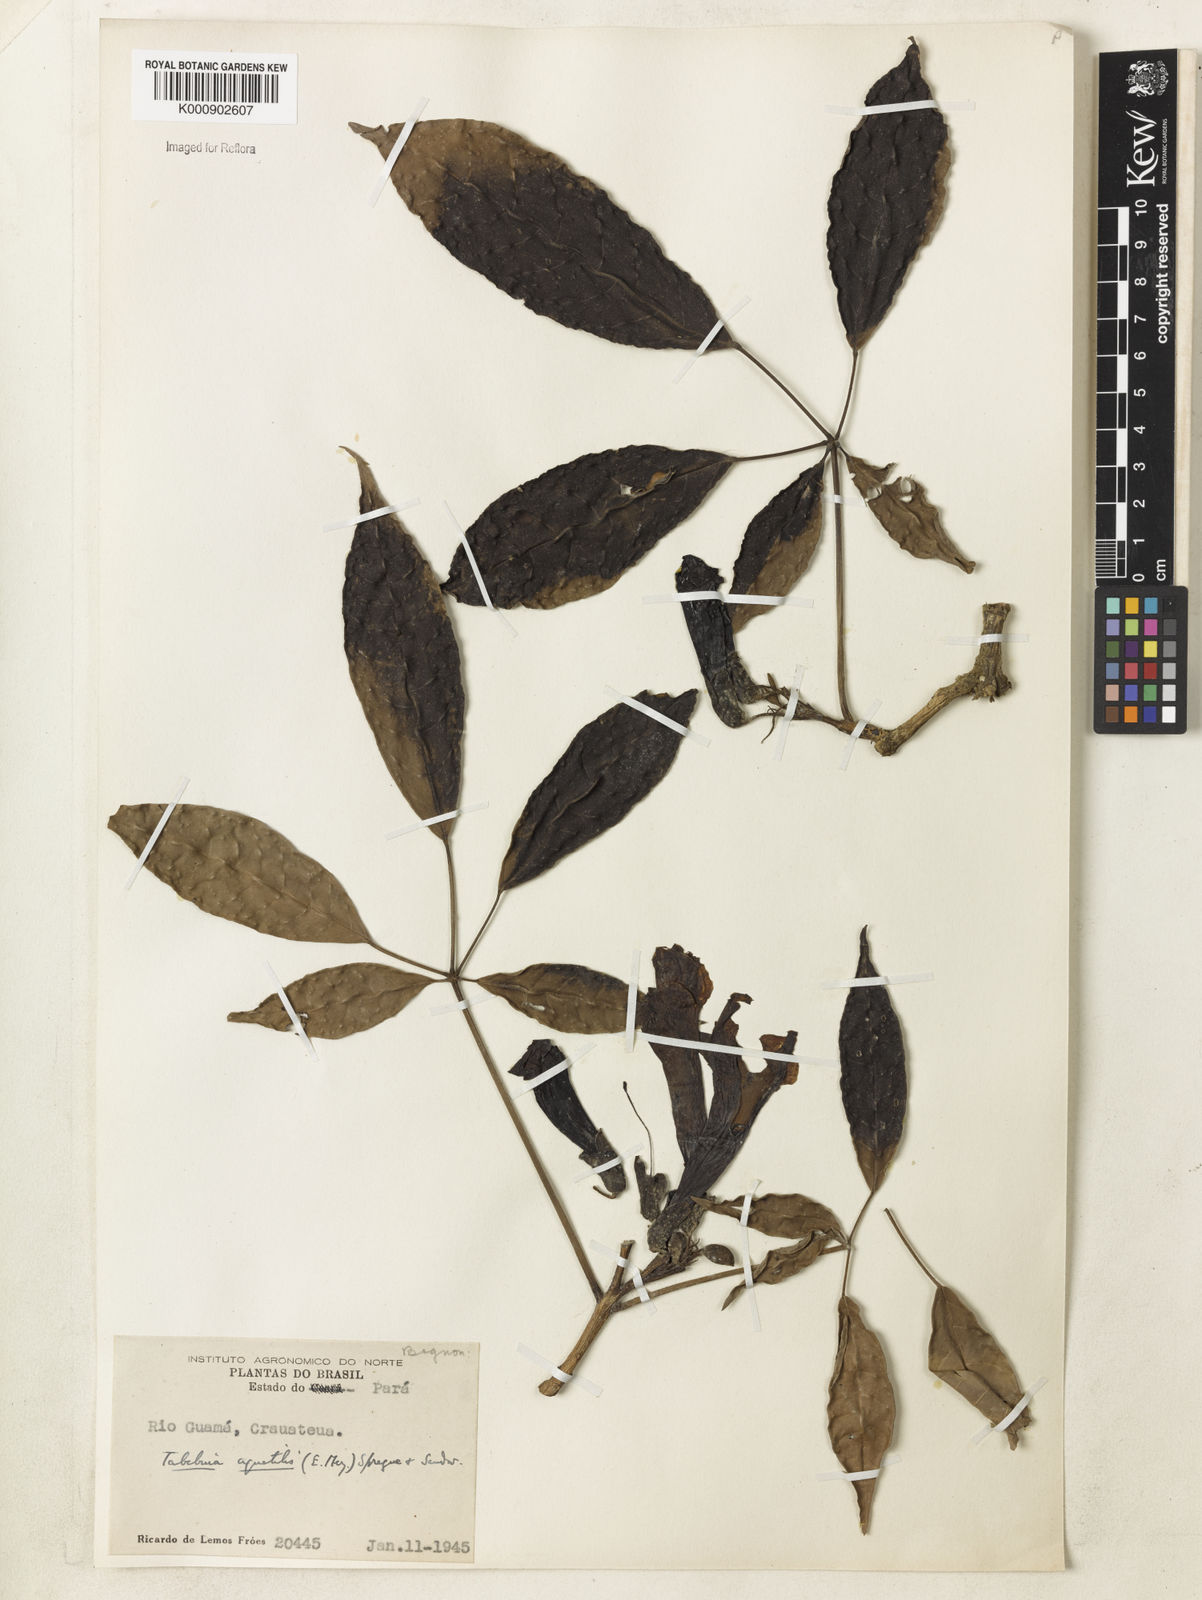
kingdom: Plantae
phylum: Tracheophyta
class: Magnoliopsida
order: Lamiales
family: Bignoniaceae
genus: Tabebuia
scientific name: Tabebuia fluviatilis
